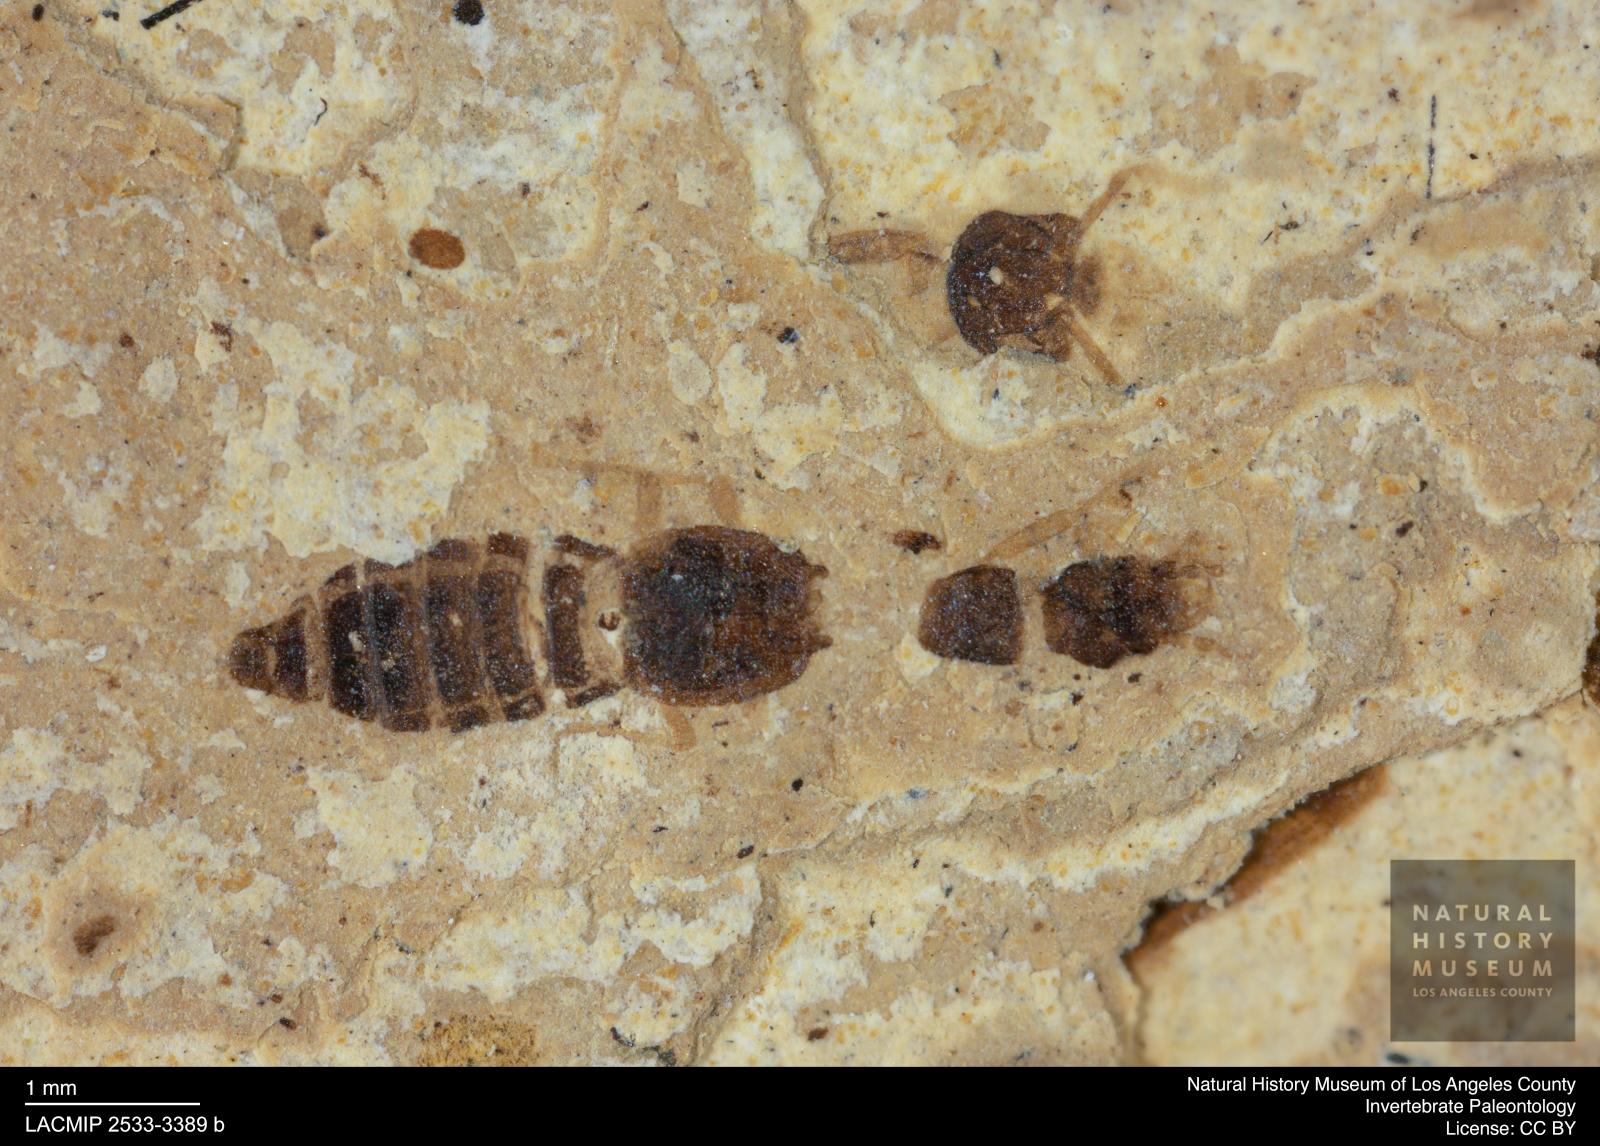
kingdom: Animalia
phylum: Arthropoda
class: Insecta
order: Coleoptera
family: Staphylinidae
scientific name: Staphylinidae
